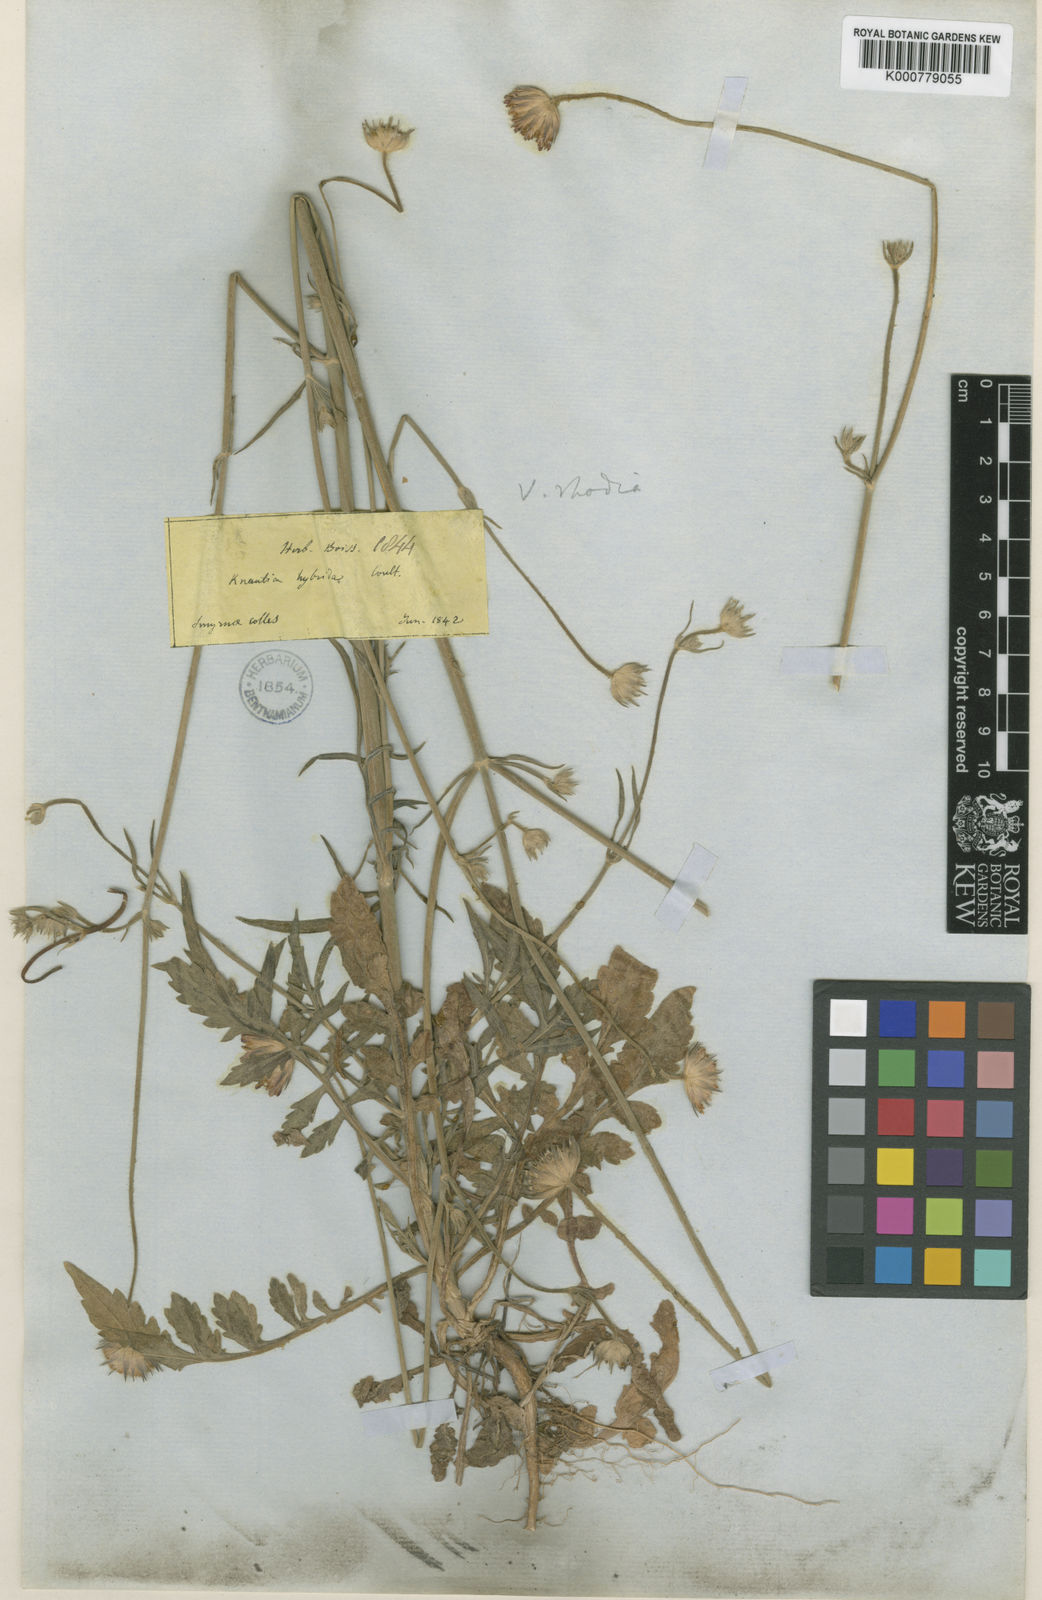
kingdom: Plantae
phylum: Tracheophyta
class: Magnoliopsida
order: Dipsacales
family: Caprifoliaceae
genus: Knautia
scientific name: Knautia
